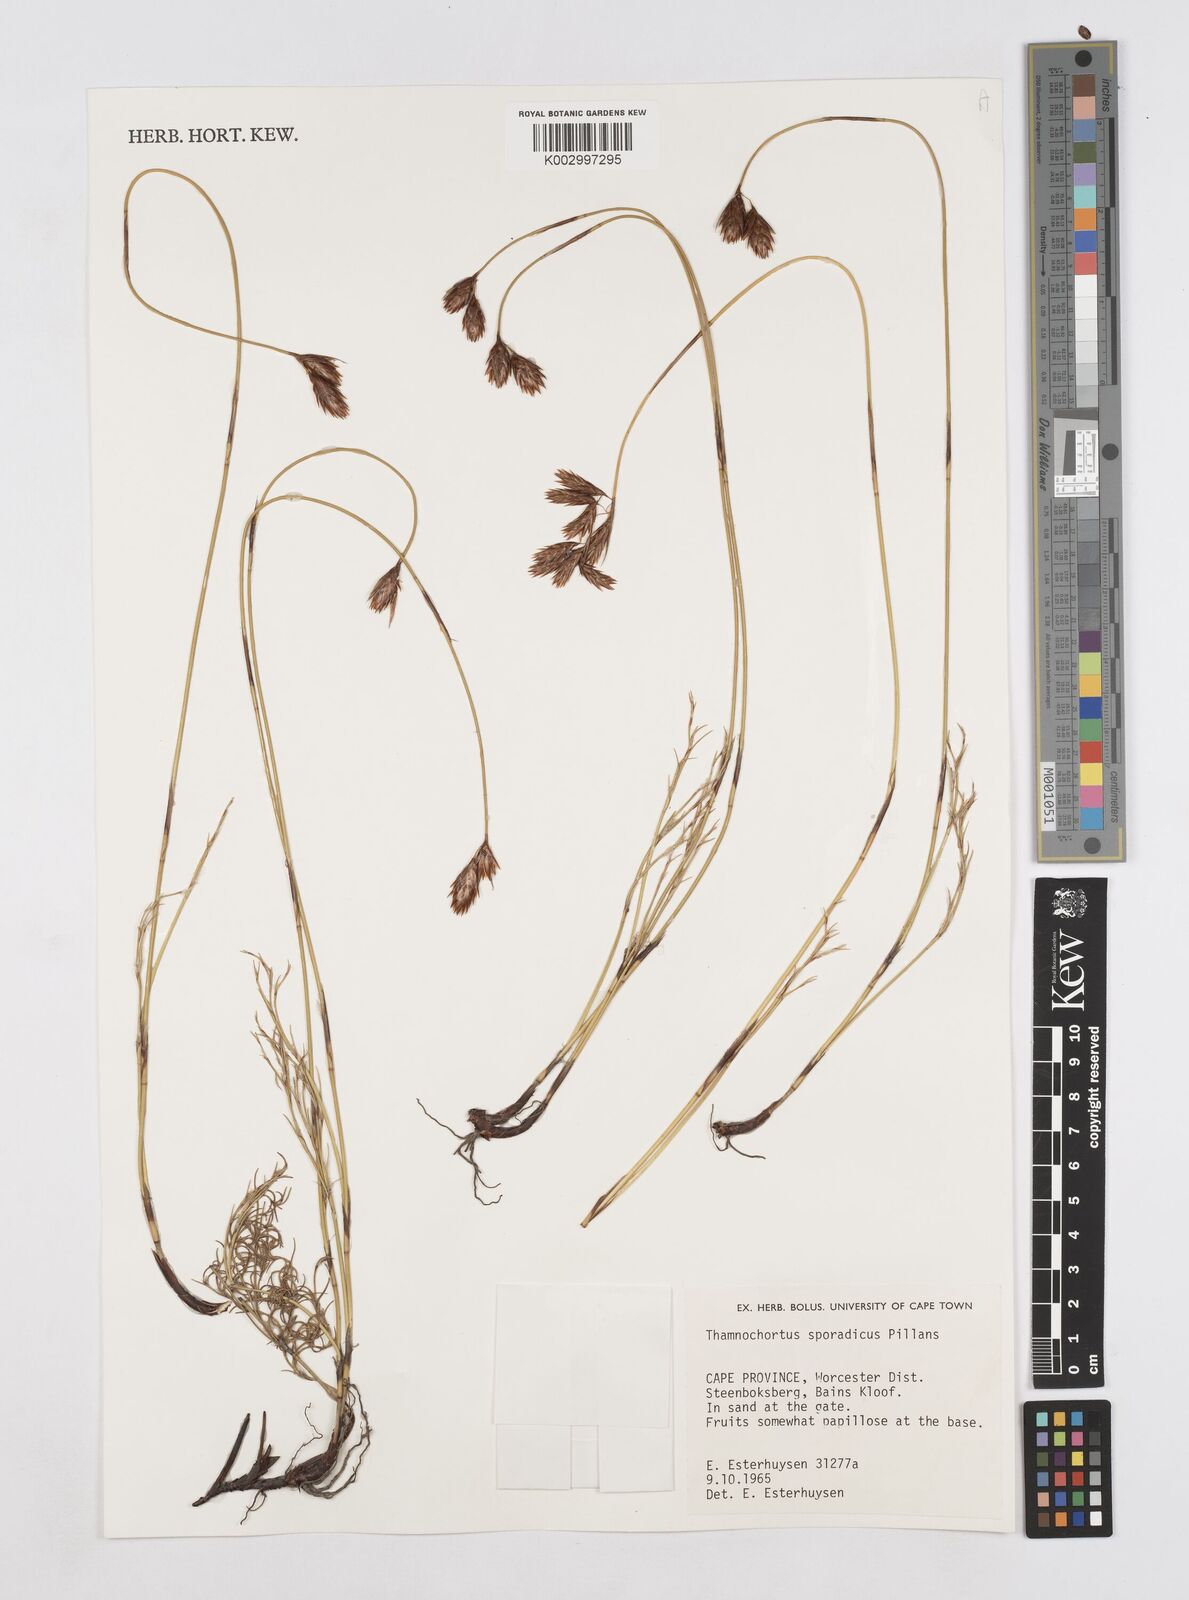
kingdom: Plantae
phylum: Tracheophyta
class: Liliopsida
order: Poales
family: Restionaceae
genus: Thamnochortus
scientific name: Thamnochortus sporadicus
